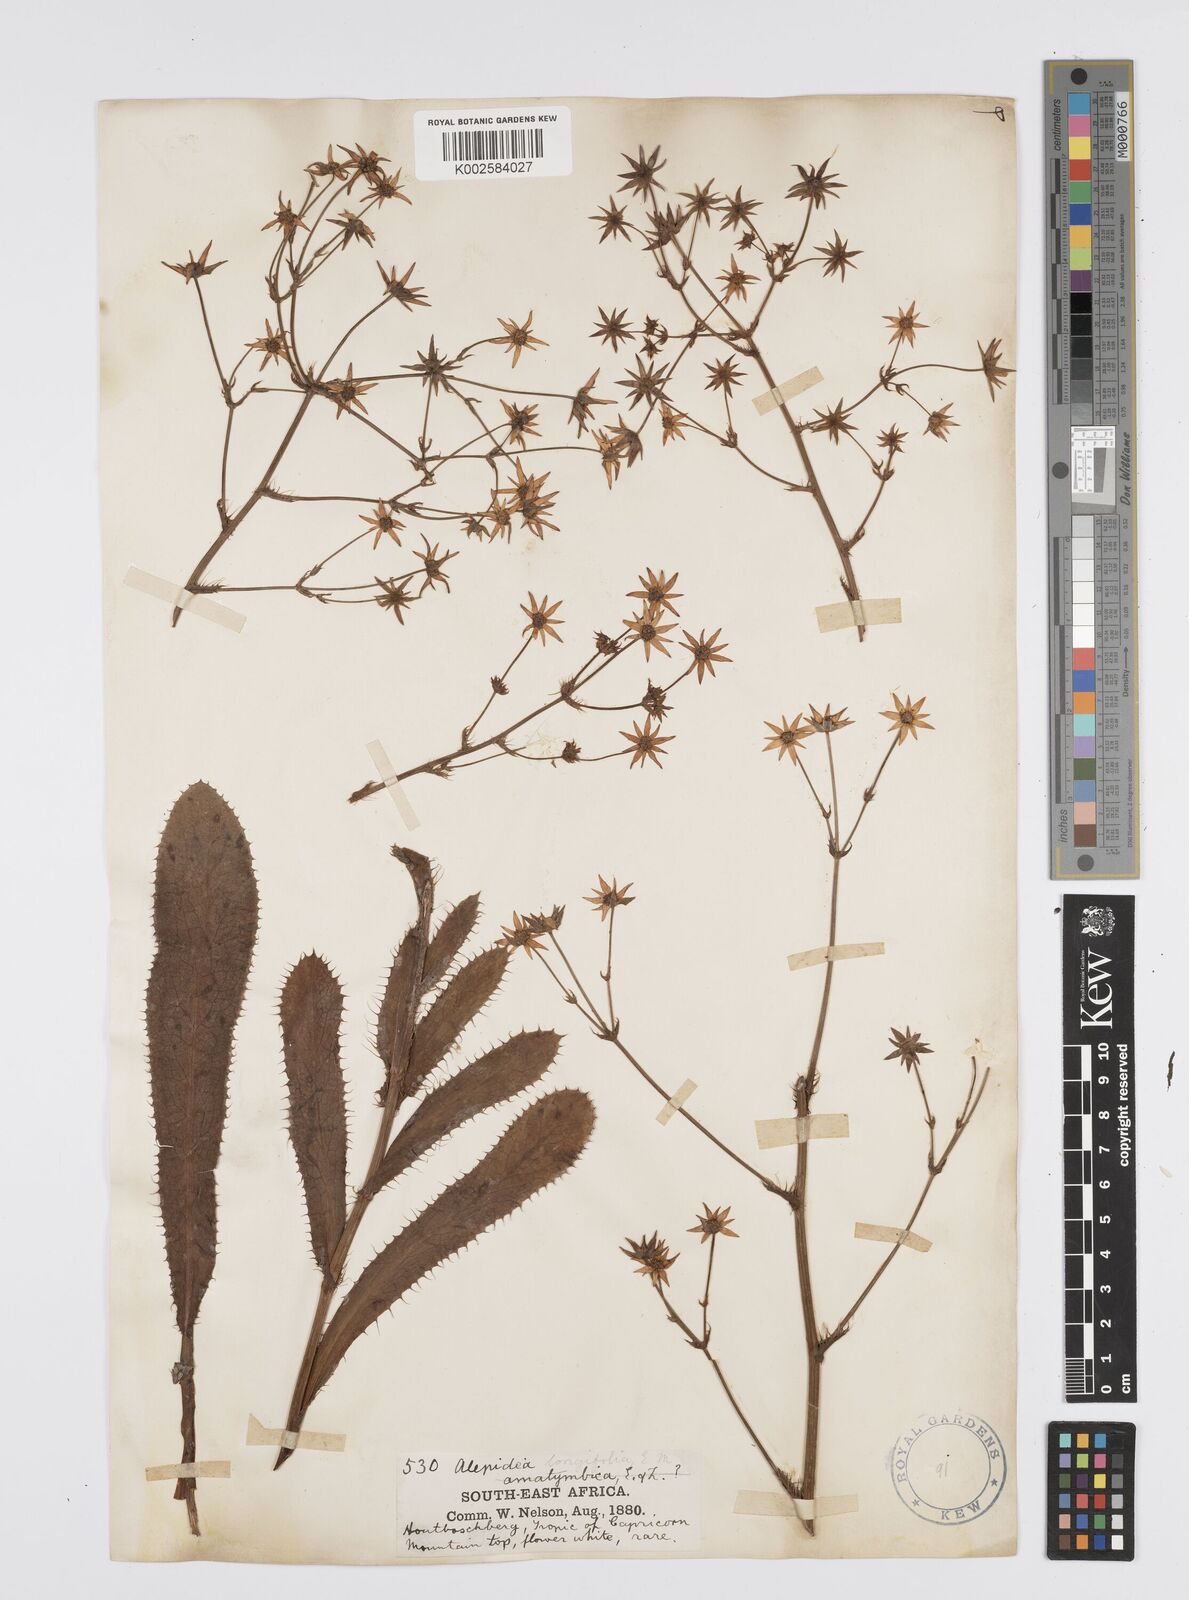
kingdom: Plantae
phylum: Tracheophyta
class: Magnoliopsida
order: Apiales
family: Apiaceae
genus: Alepidea
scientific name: Alepidea
